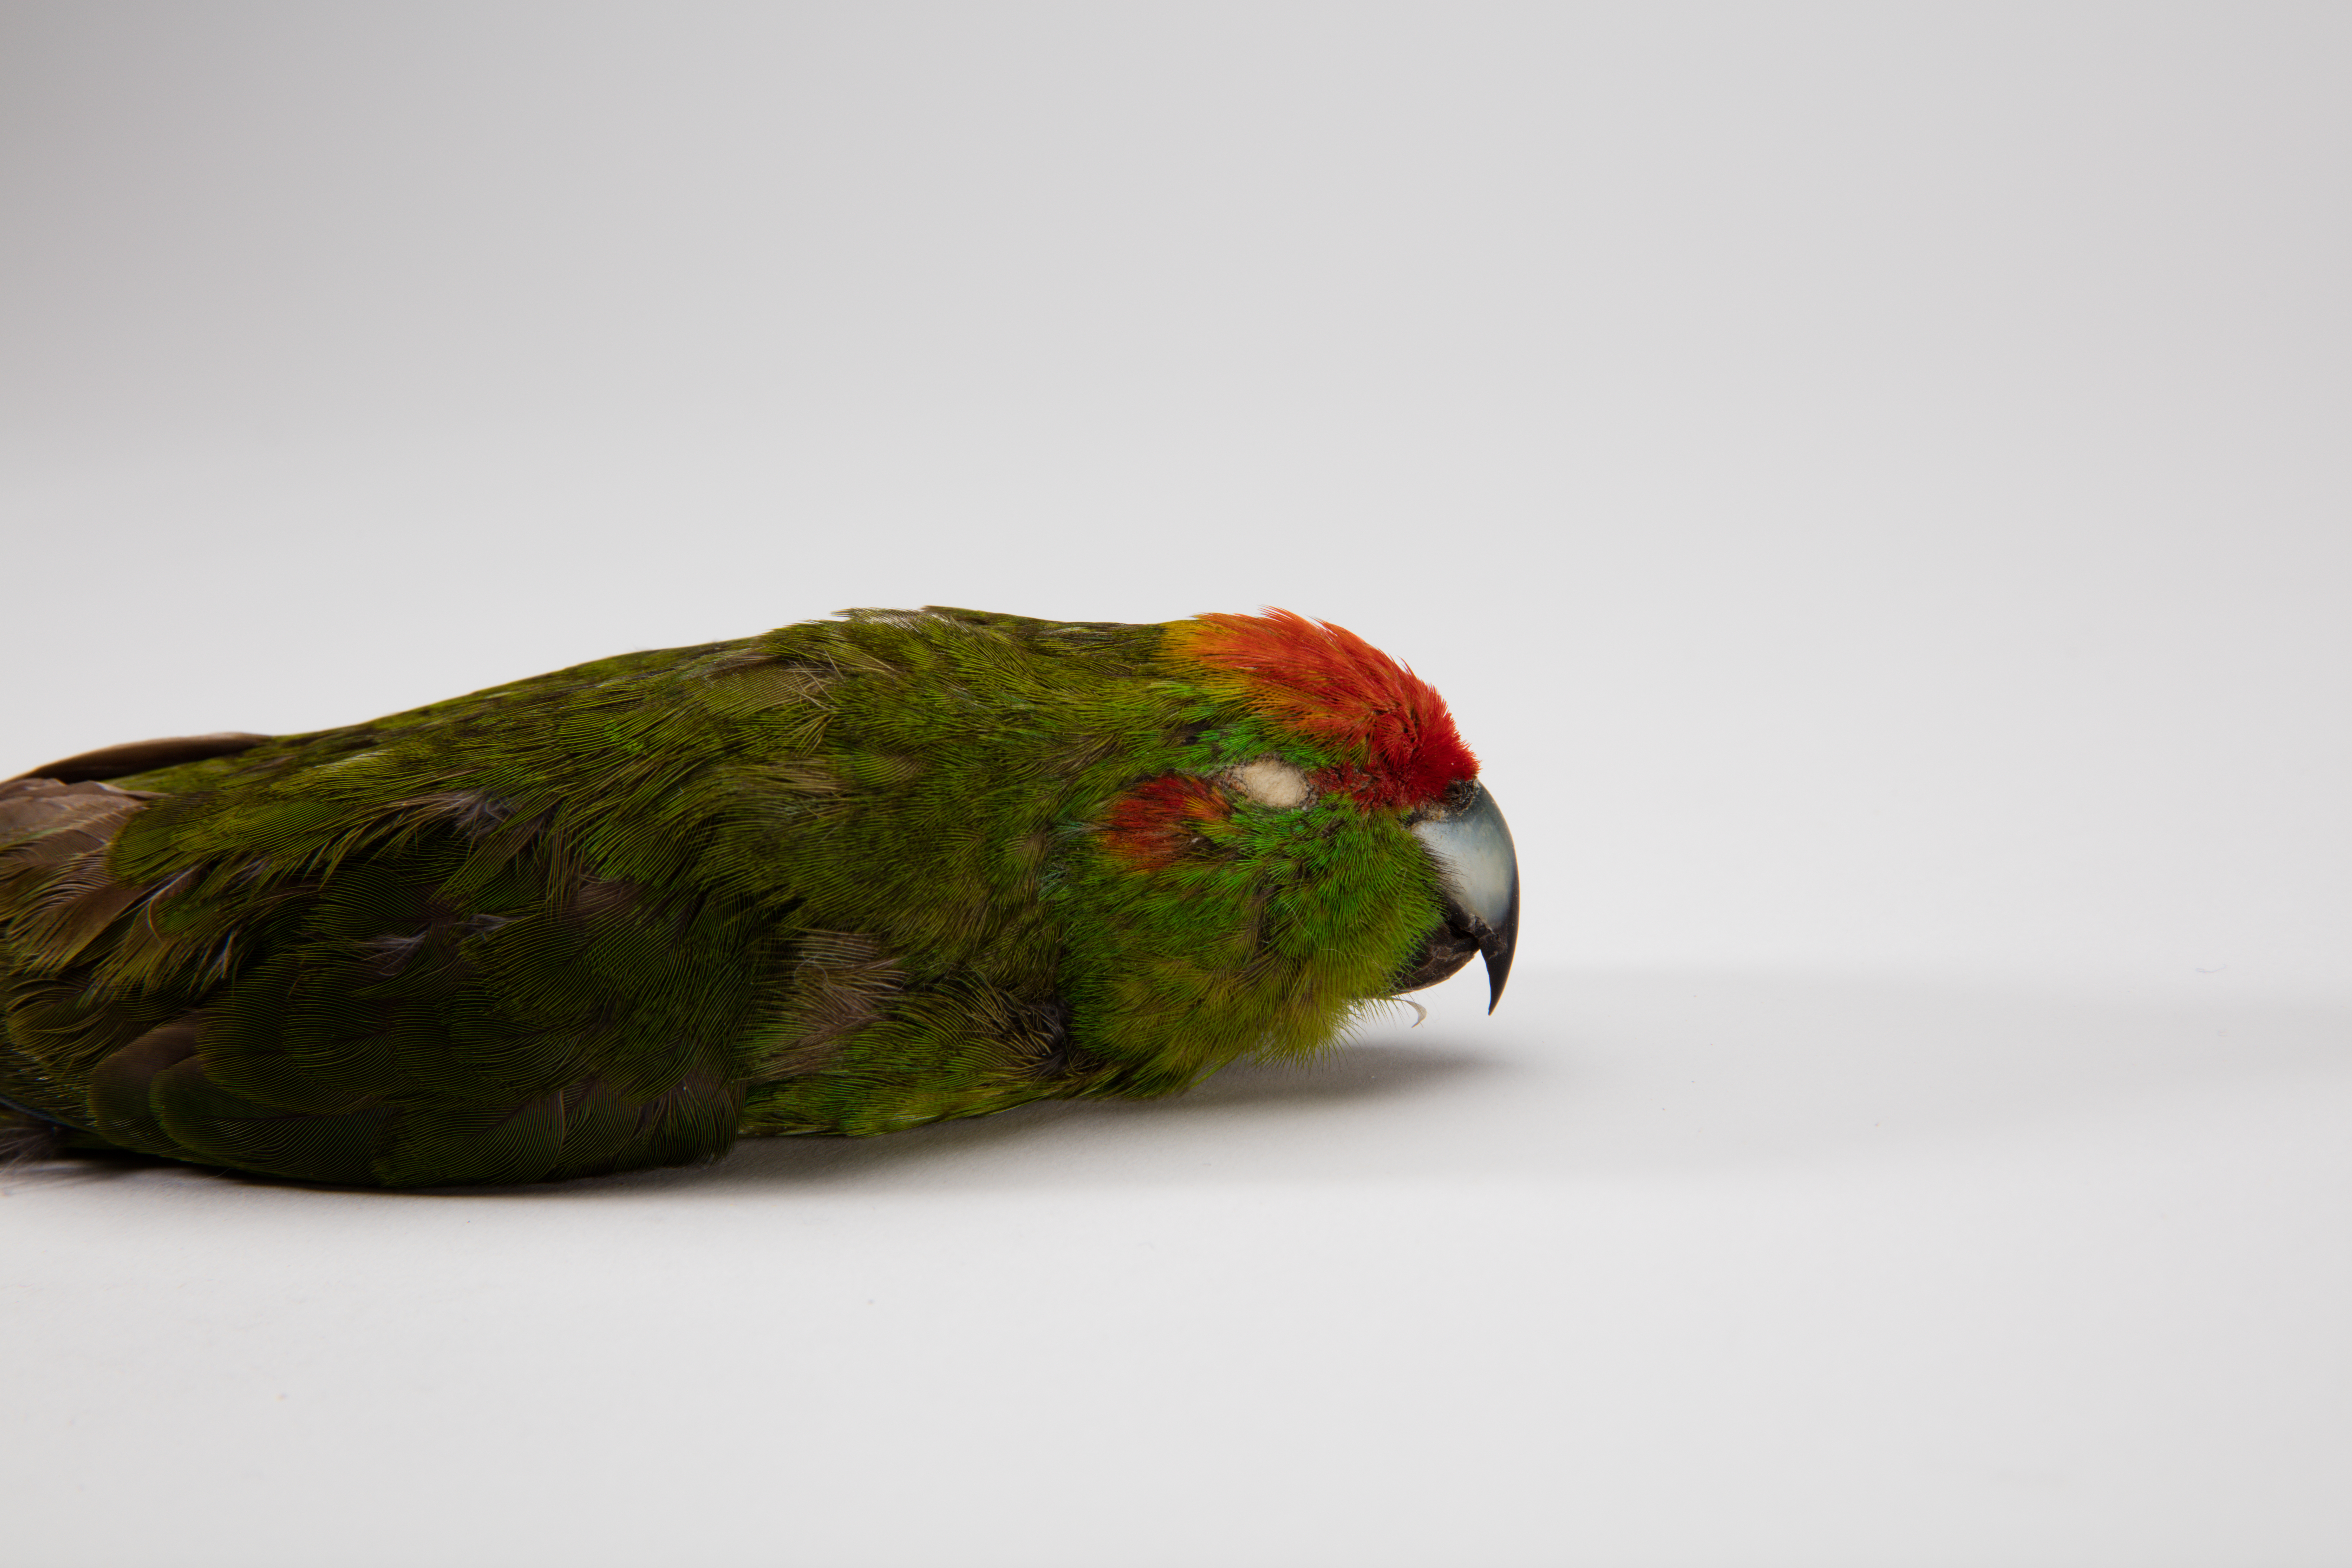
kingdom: Animalia
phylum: Chordata
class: Aves
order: Psittaciformes
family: Psittacidae
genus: Cyanoramphus
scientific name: Cyanoramphus novaezelandiae
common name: Red-fronted parakeet
